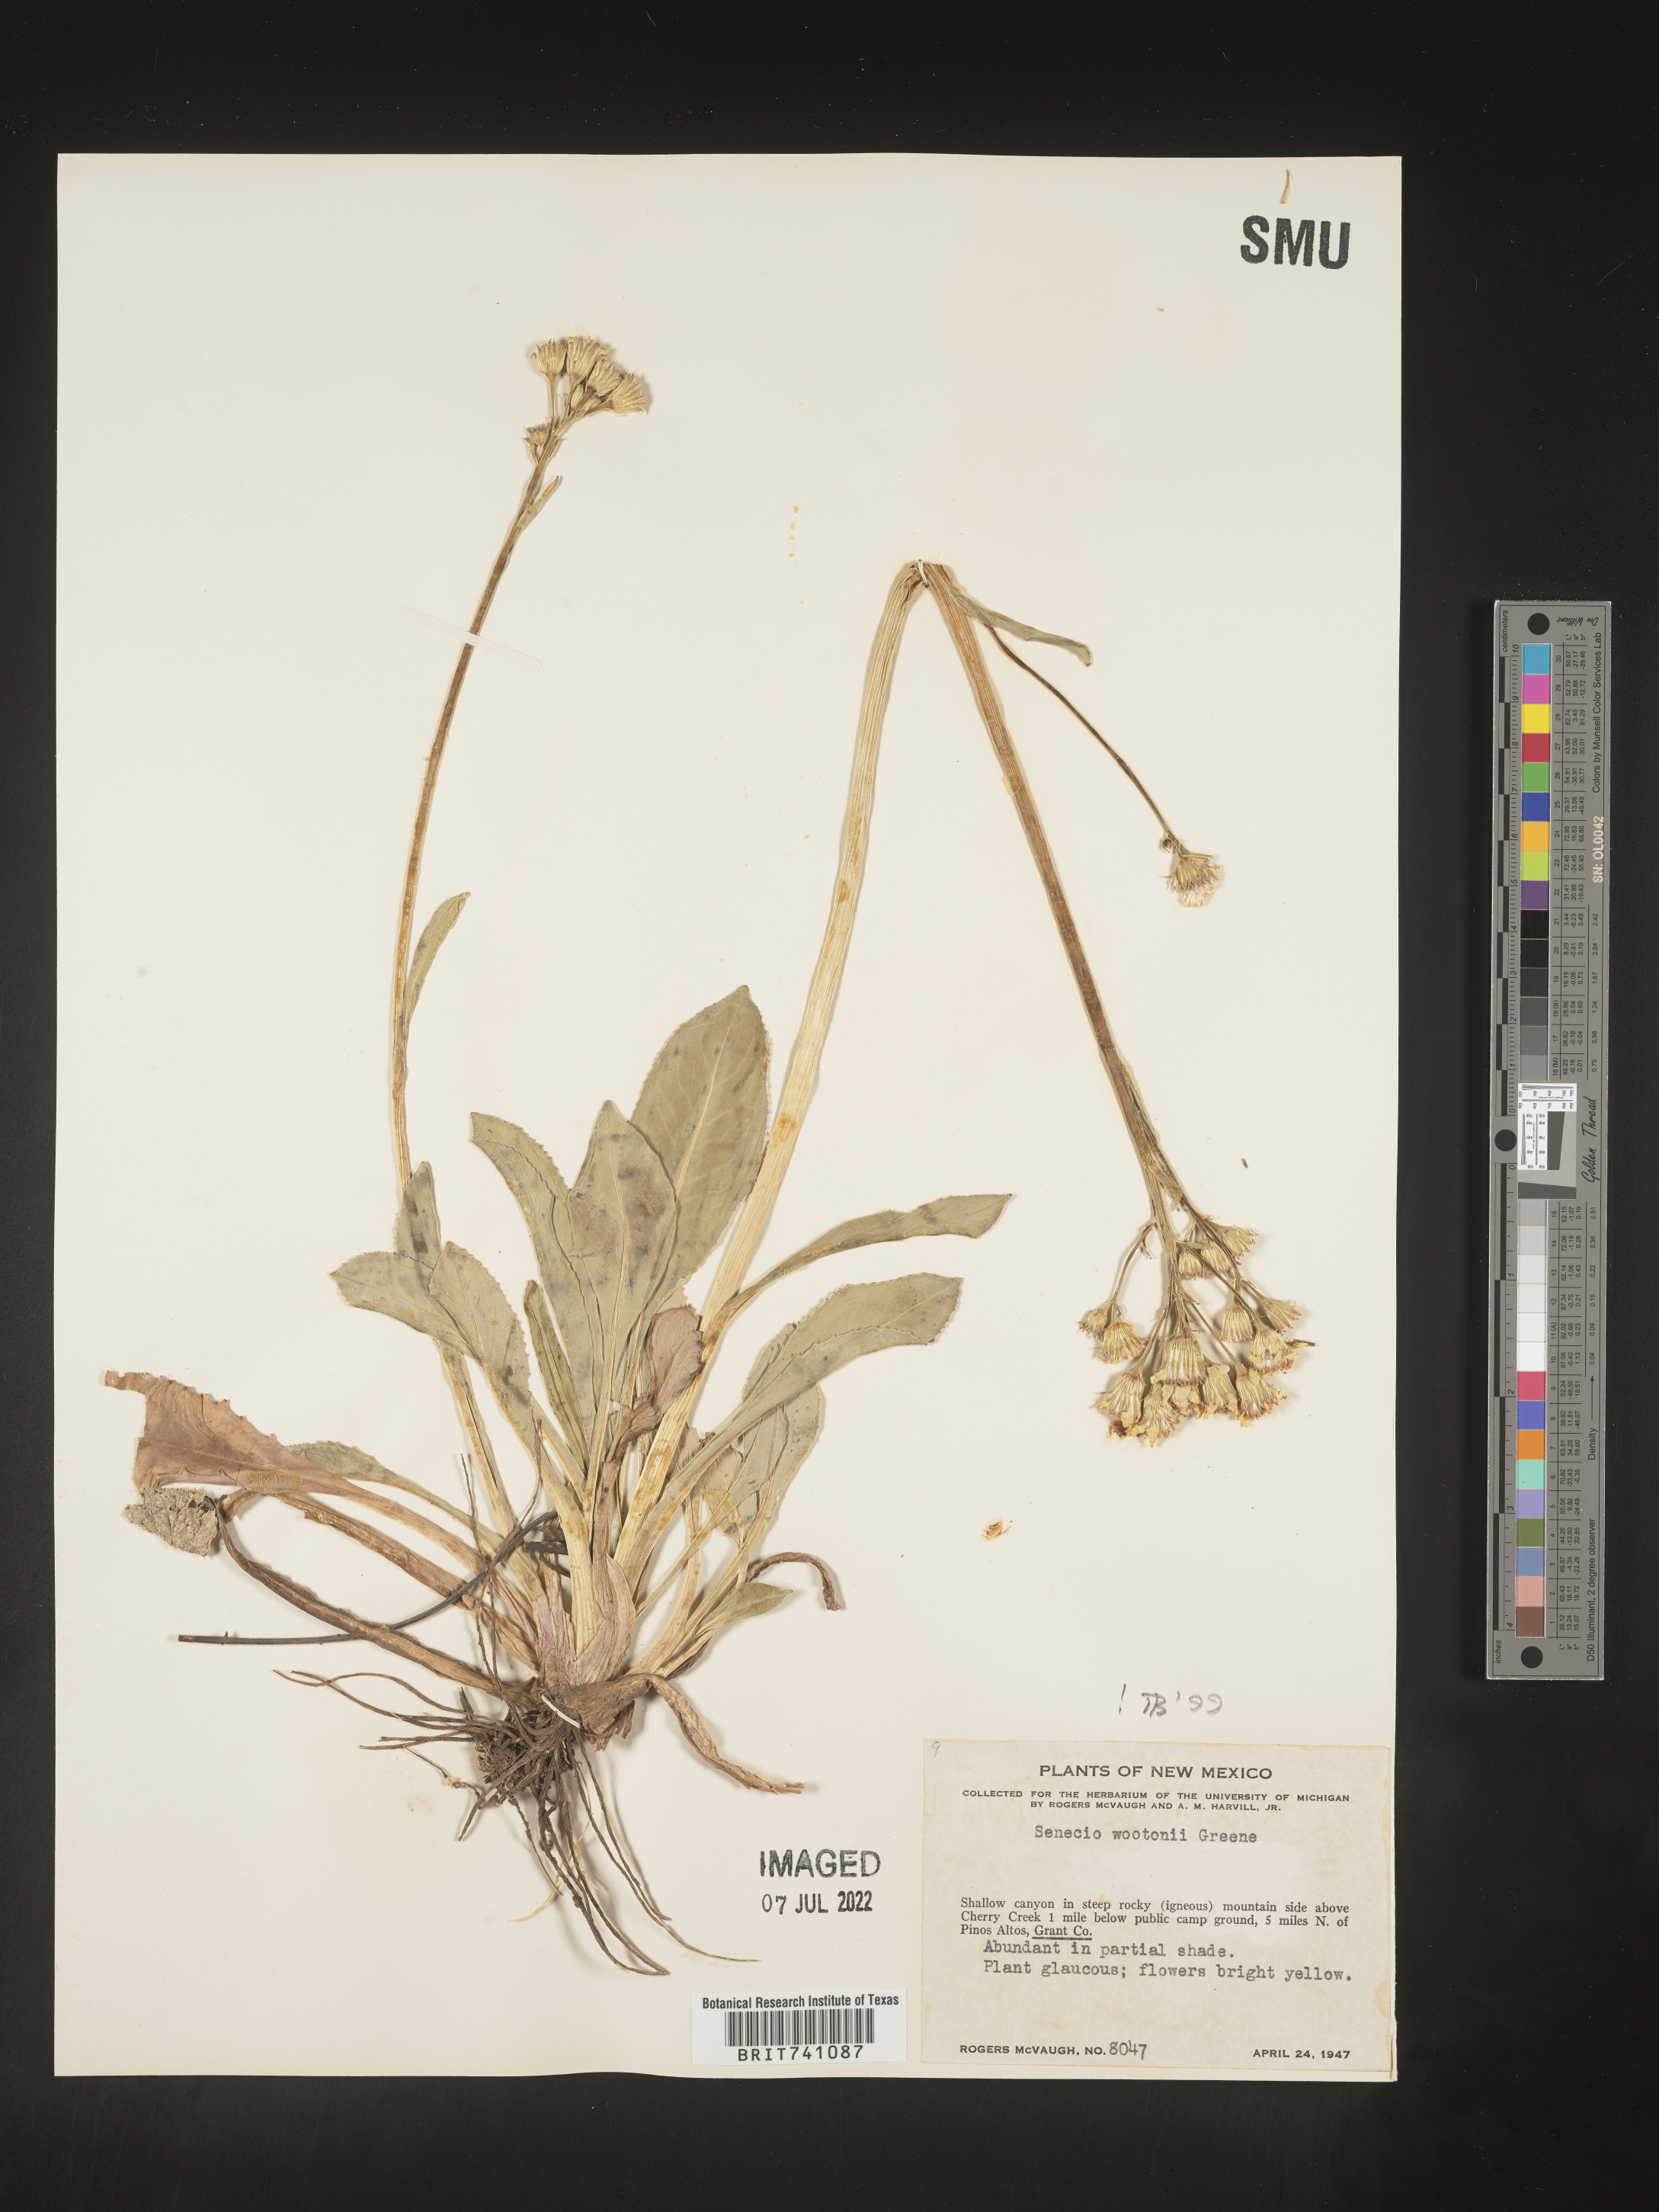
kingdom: Plantae
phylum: Tracheophyta
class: Magnoliopsida
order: Asterales
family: Asteraceae
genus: Senecio
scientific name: Senecio wootonii
